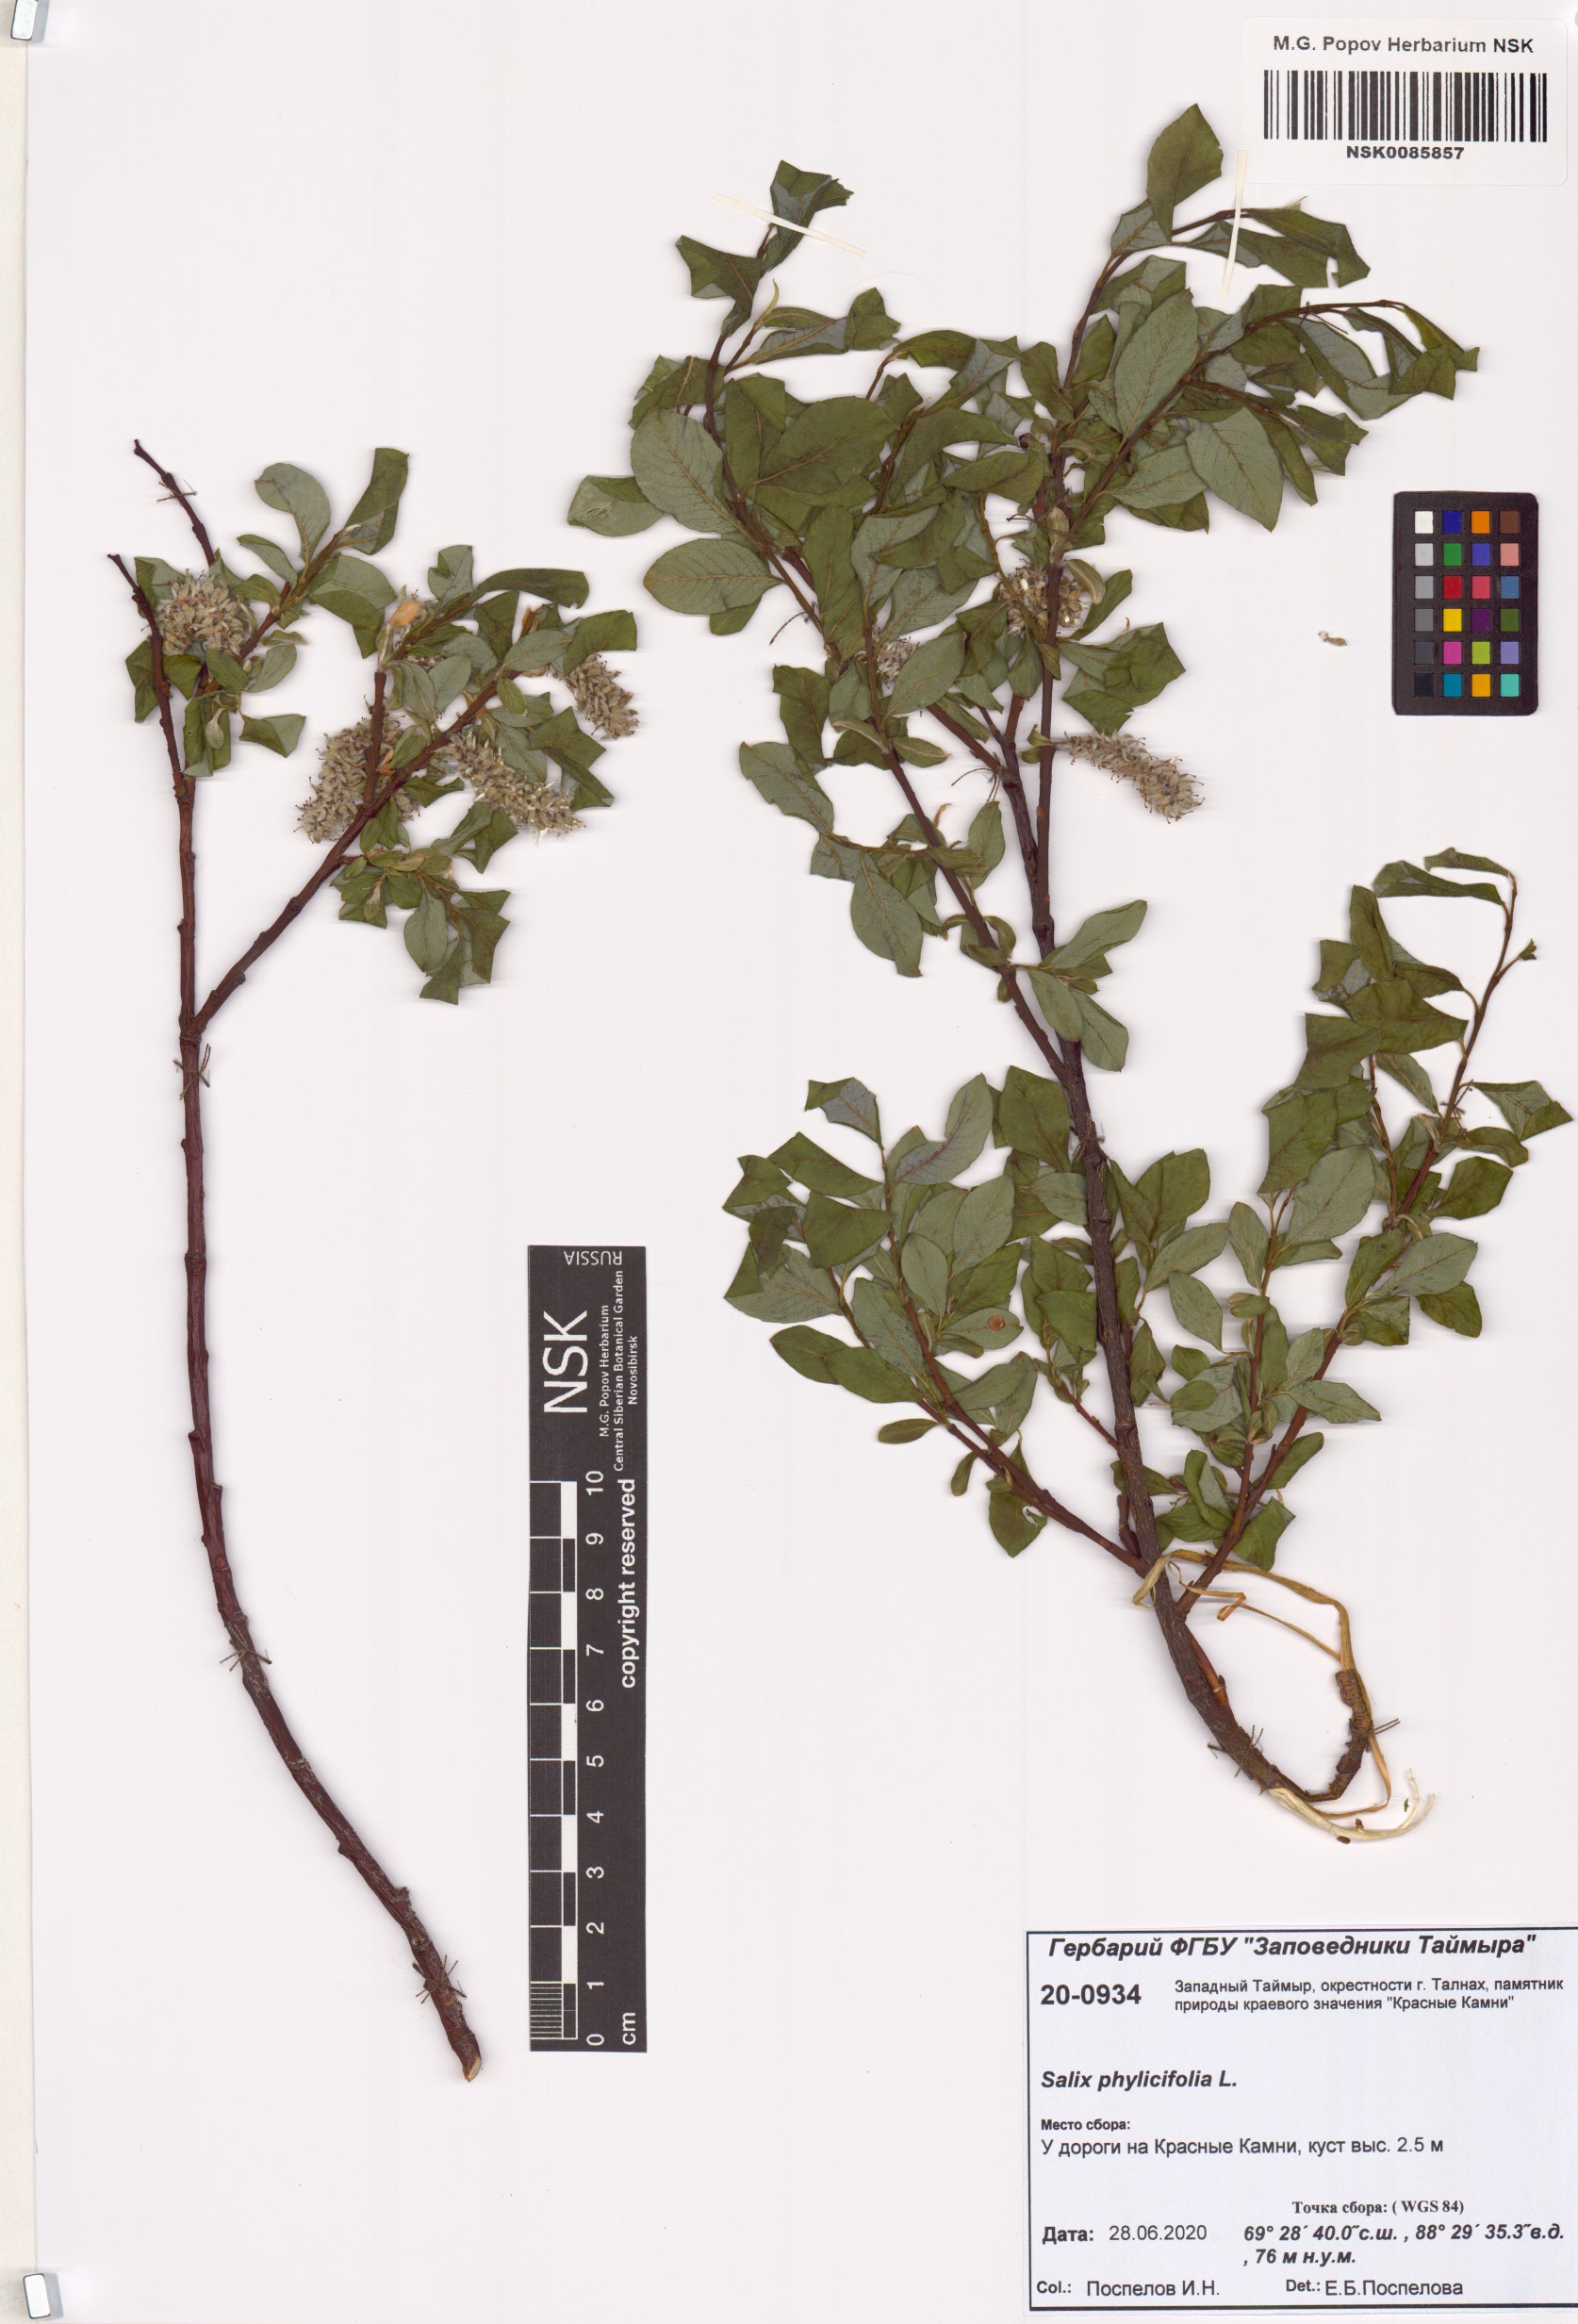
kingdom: Plantae
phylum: Tracheophyta
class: Magnoliopsida
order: Malpighiales
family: Salicaceae
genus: Salix
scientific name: Salix phylicifolia
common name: Tea-leaved willow
